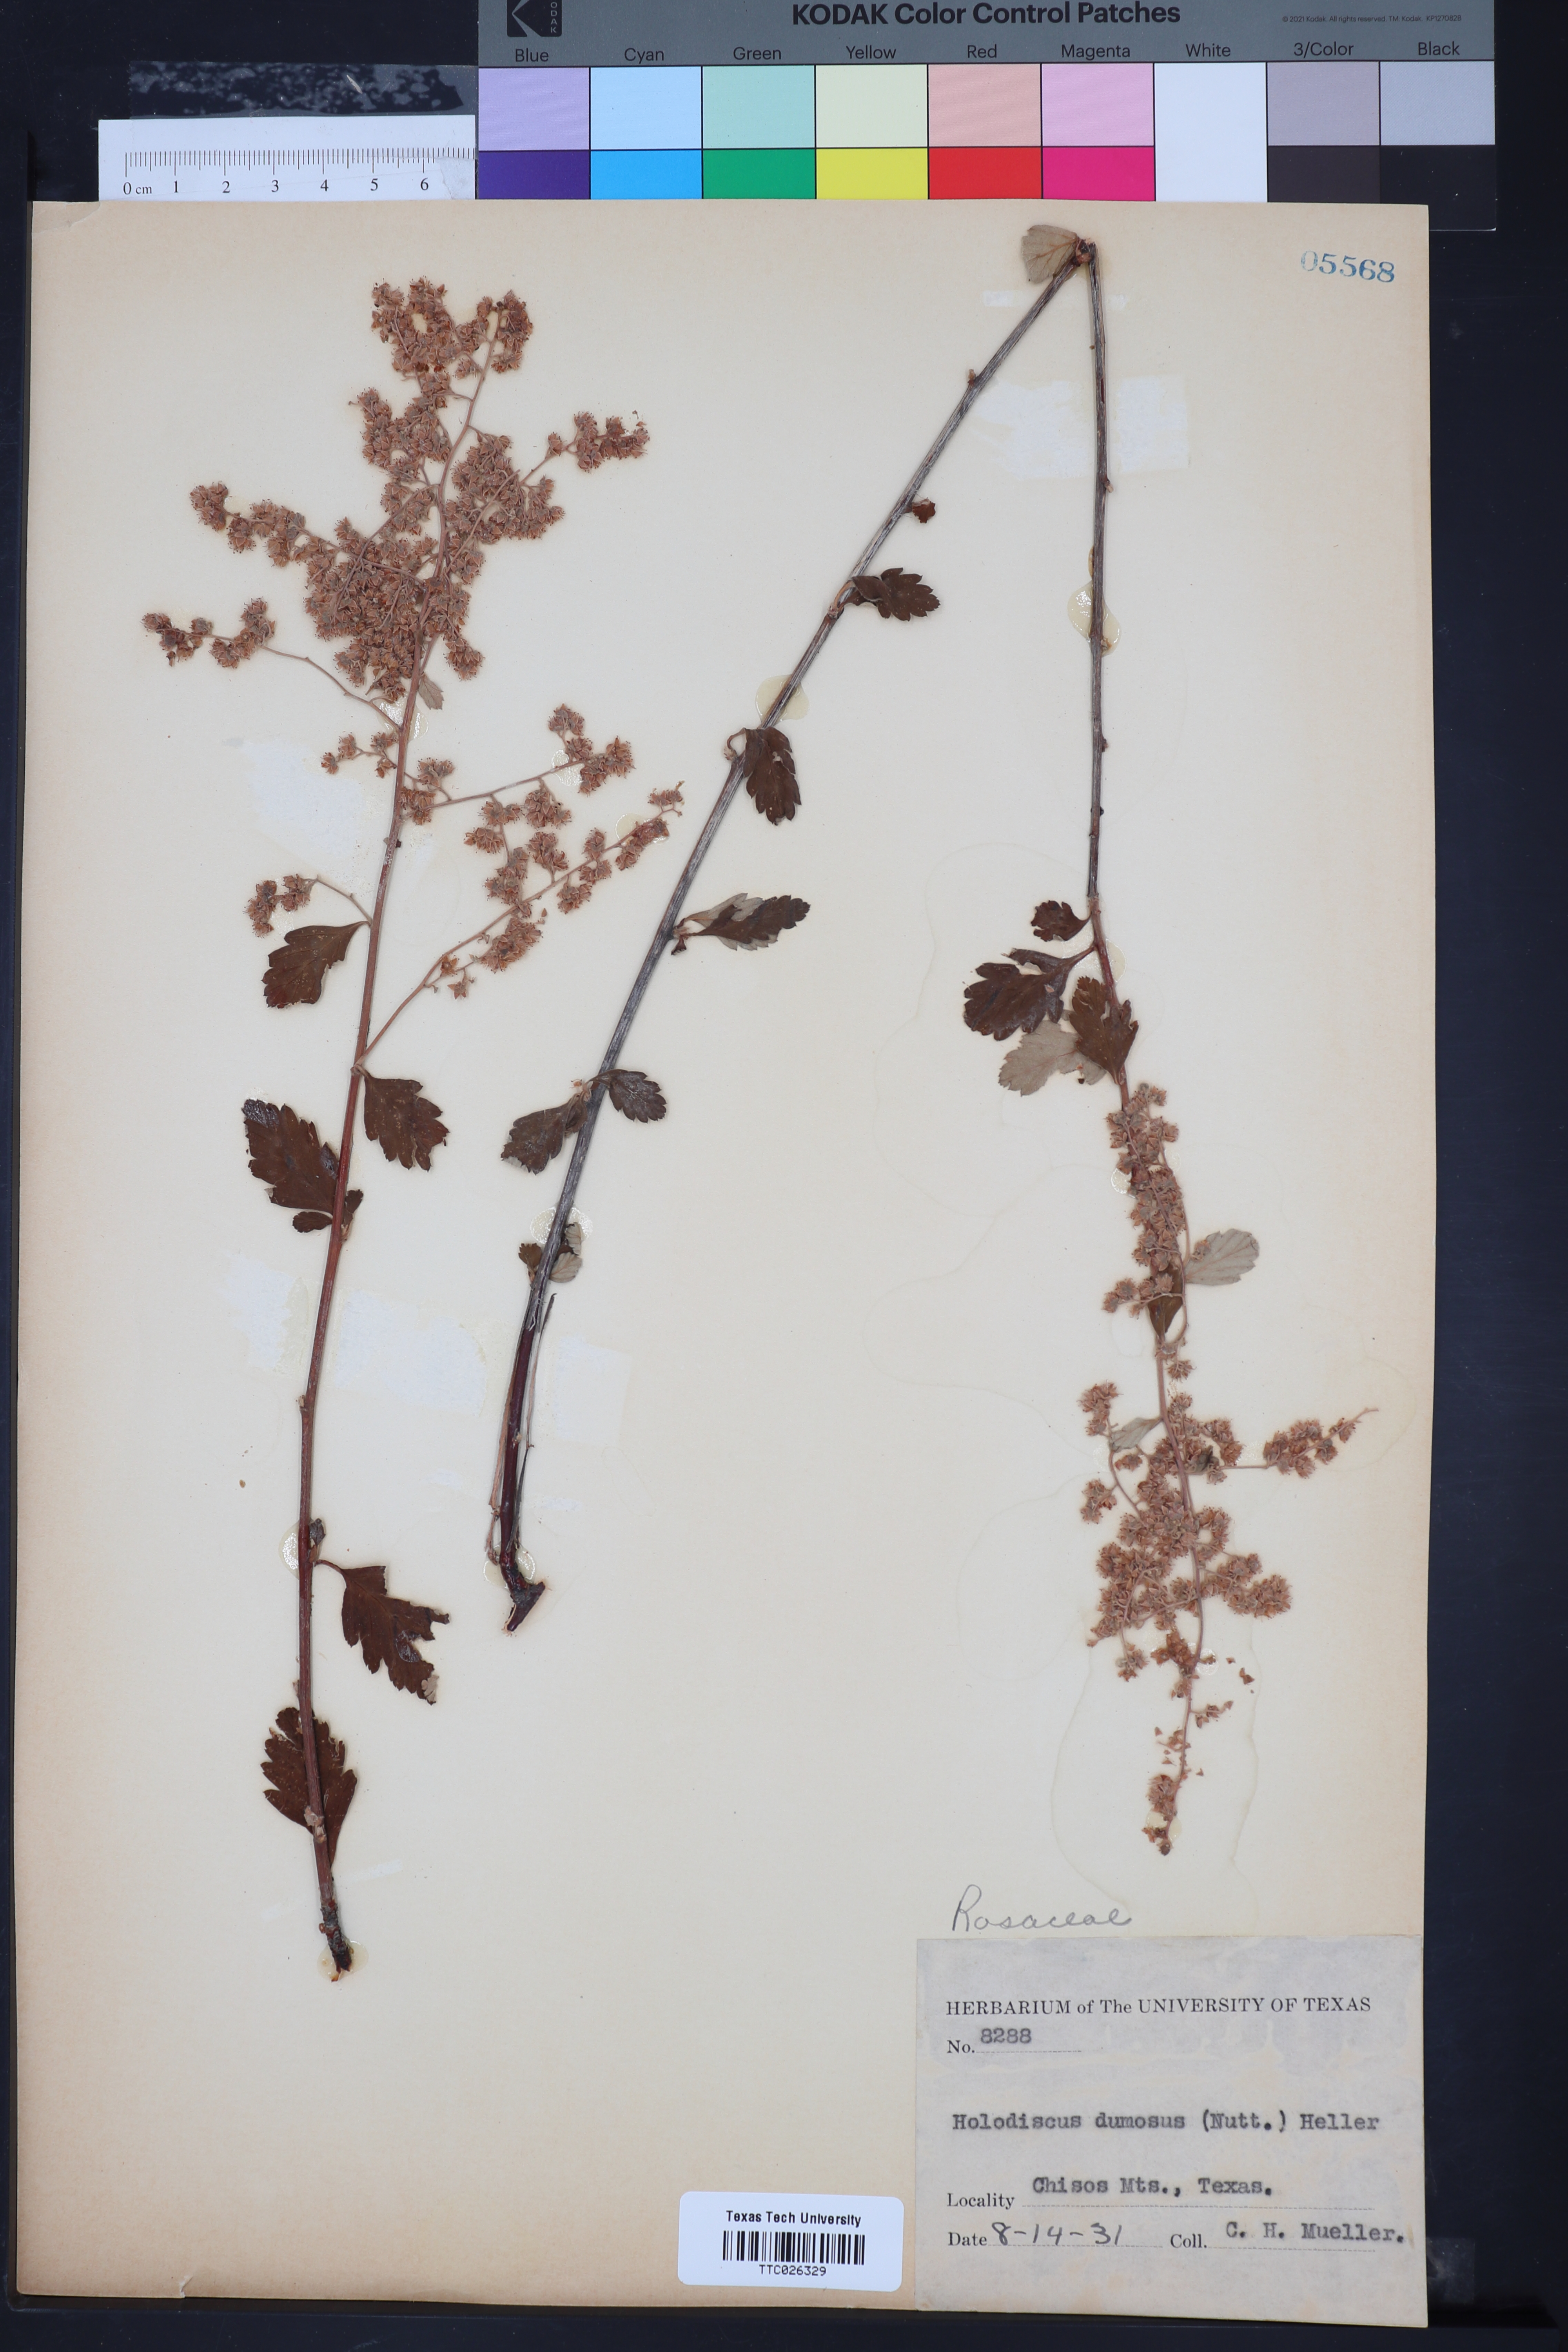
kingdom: Plantae
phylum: Tracheophyta
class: Magnoliopsida
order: Rosales
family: Rosaceae
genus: Holodiscus
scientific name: Holodiscus
